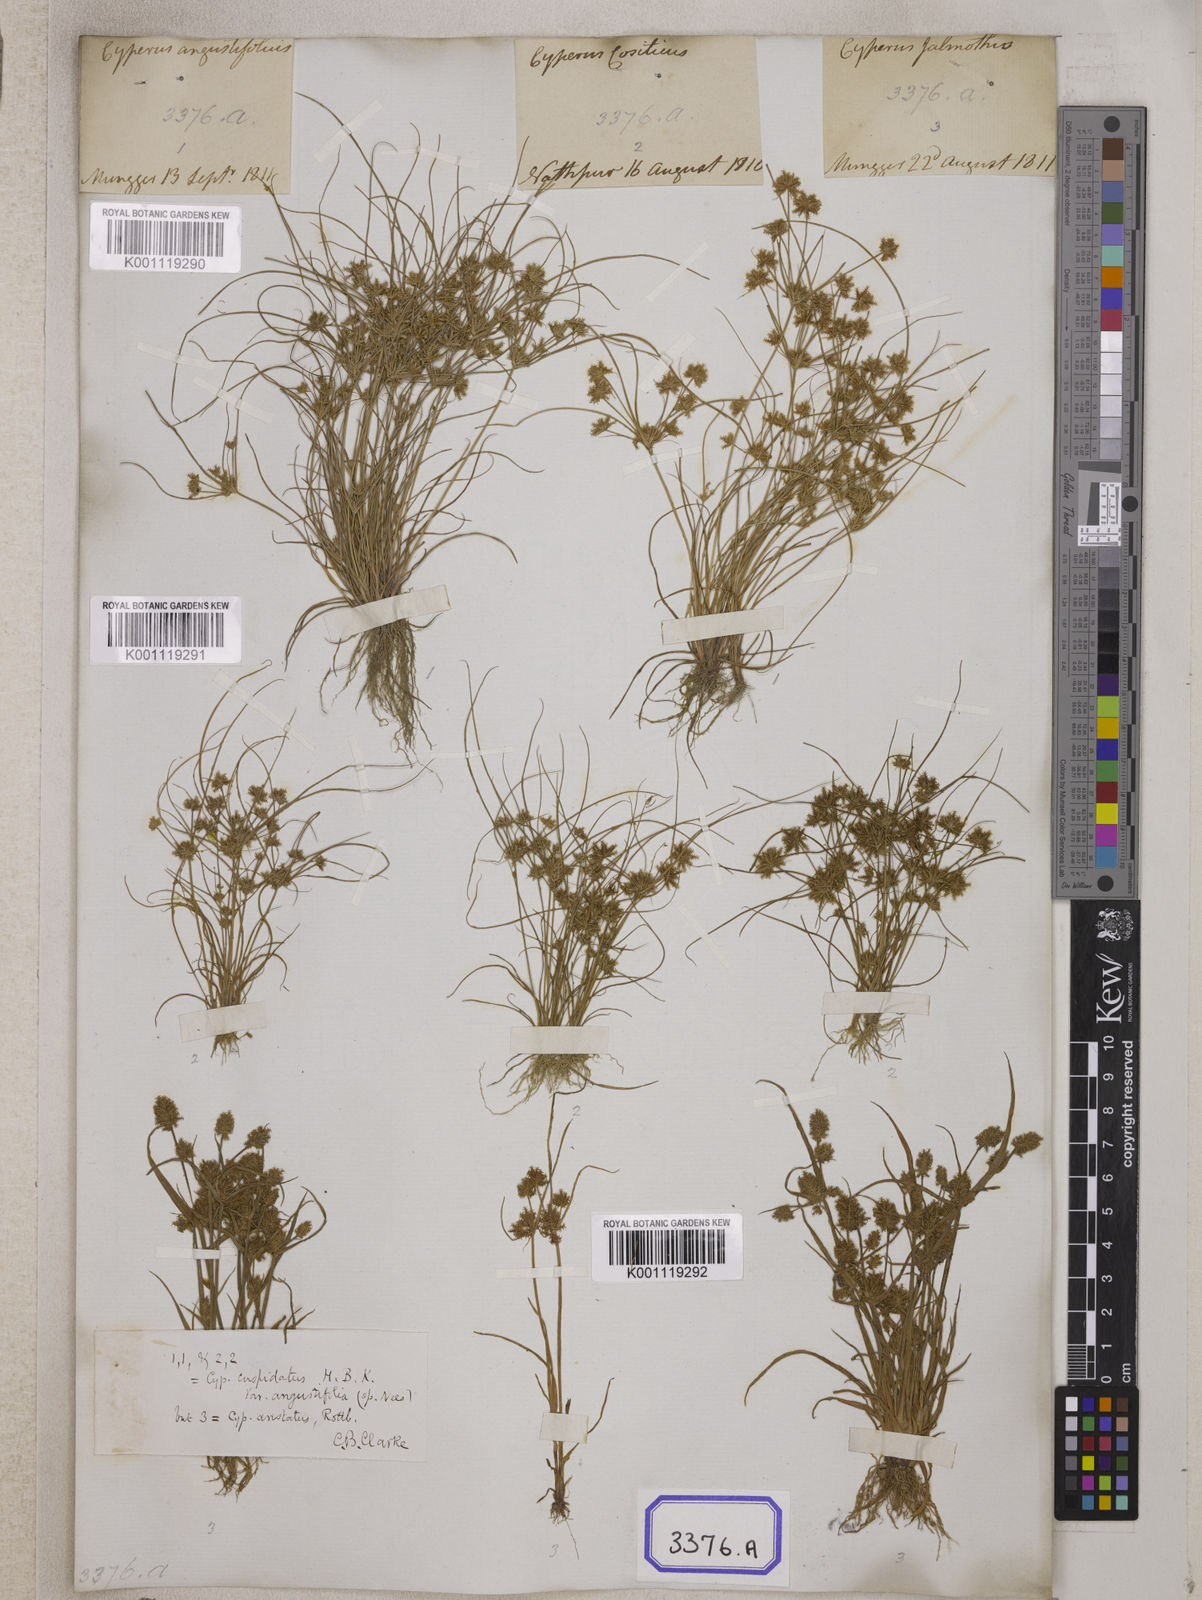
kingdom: Plantae
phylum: Tracheophyta
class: Liliopsida
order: Poales
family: Cyperaceae
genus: Cyperus
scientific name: Cyperus
